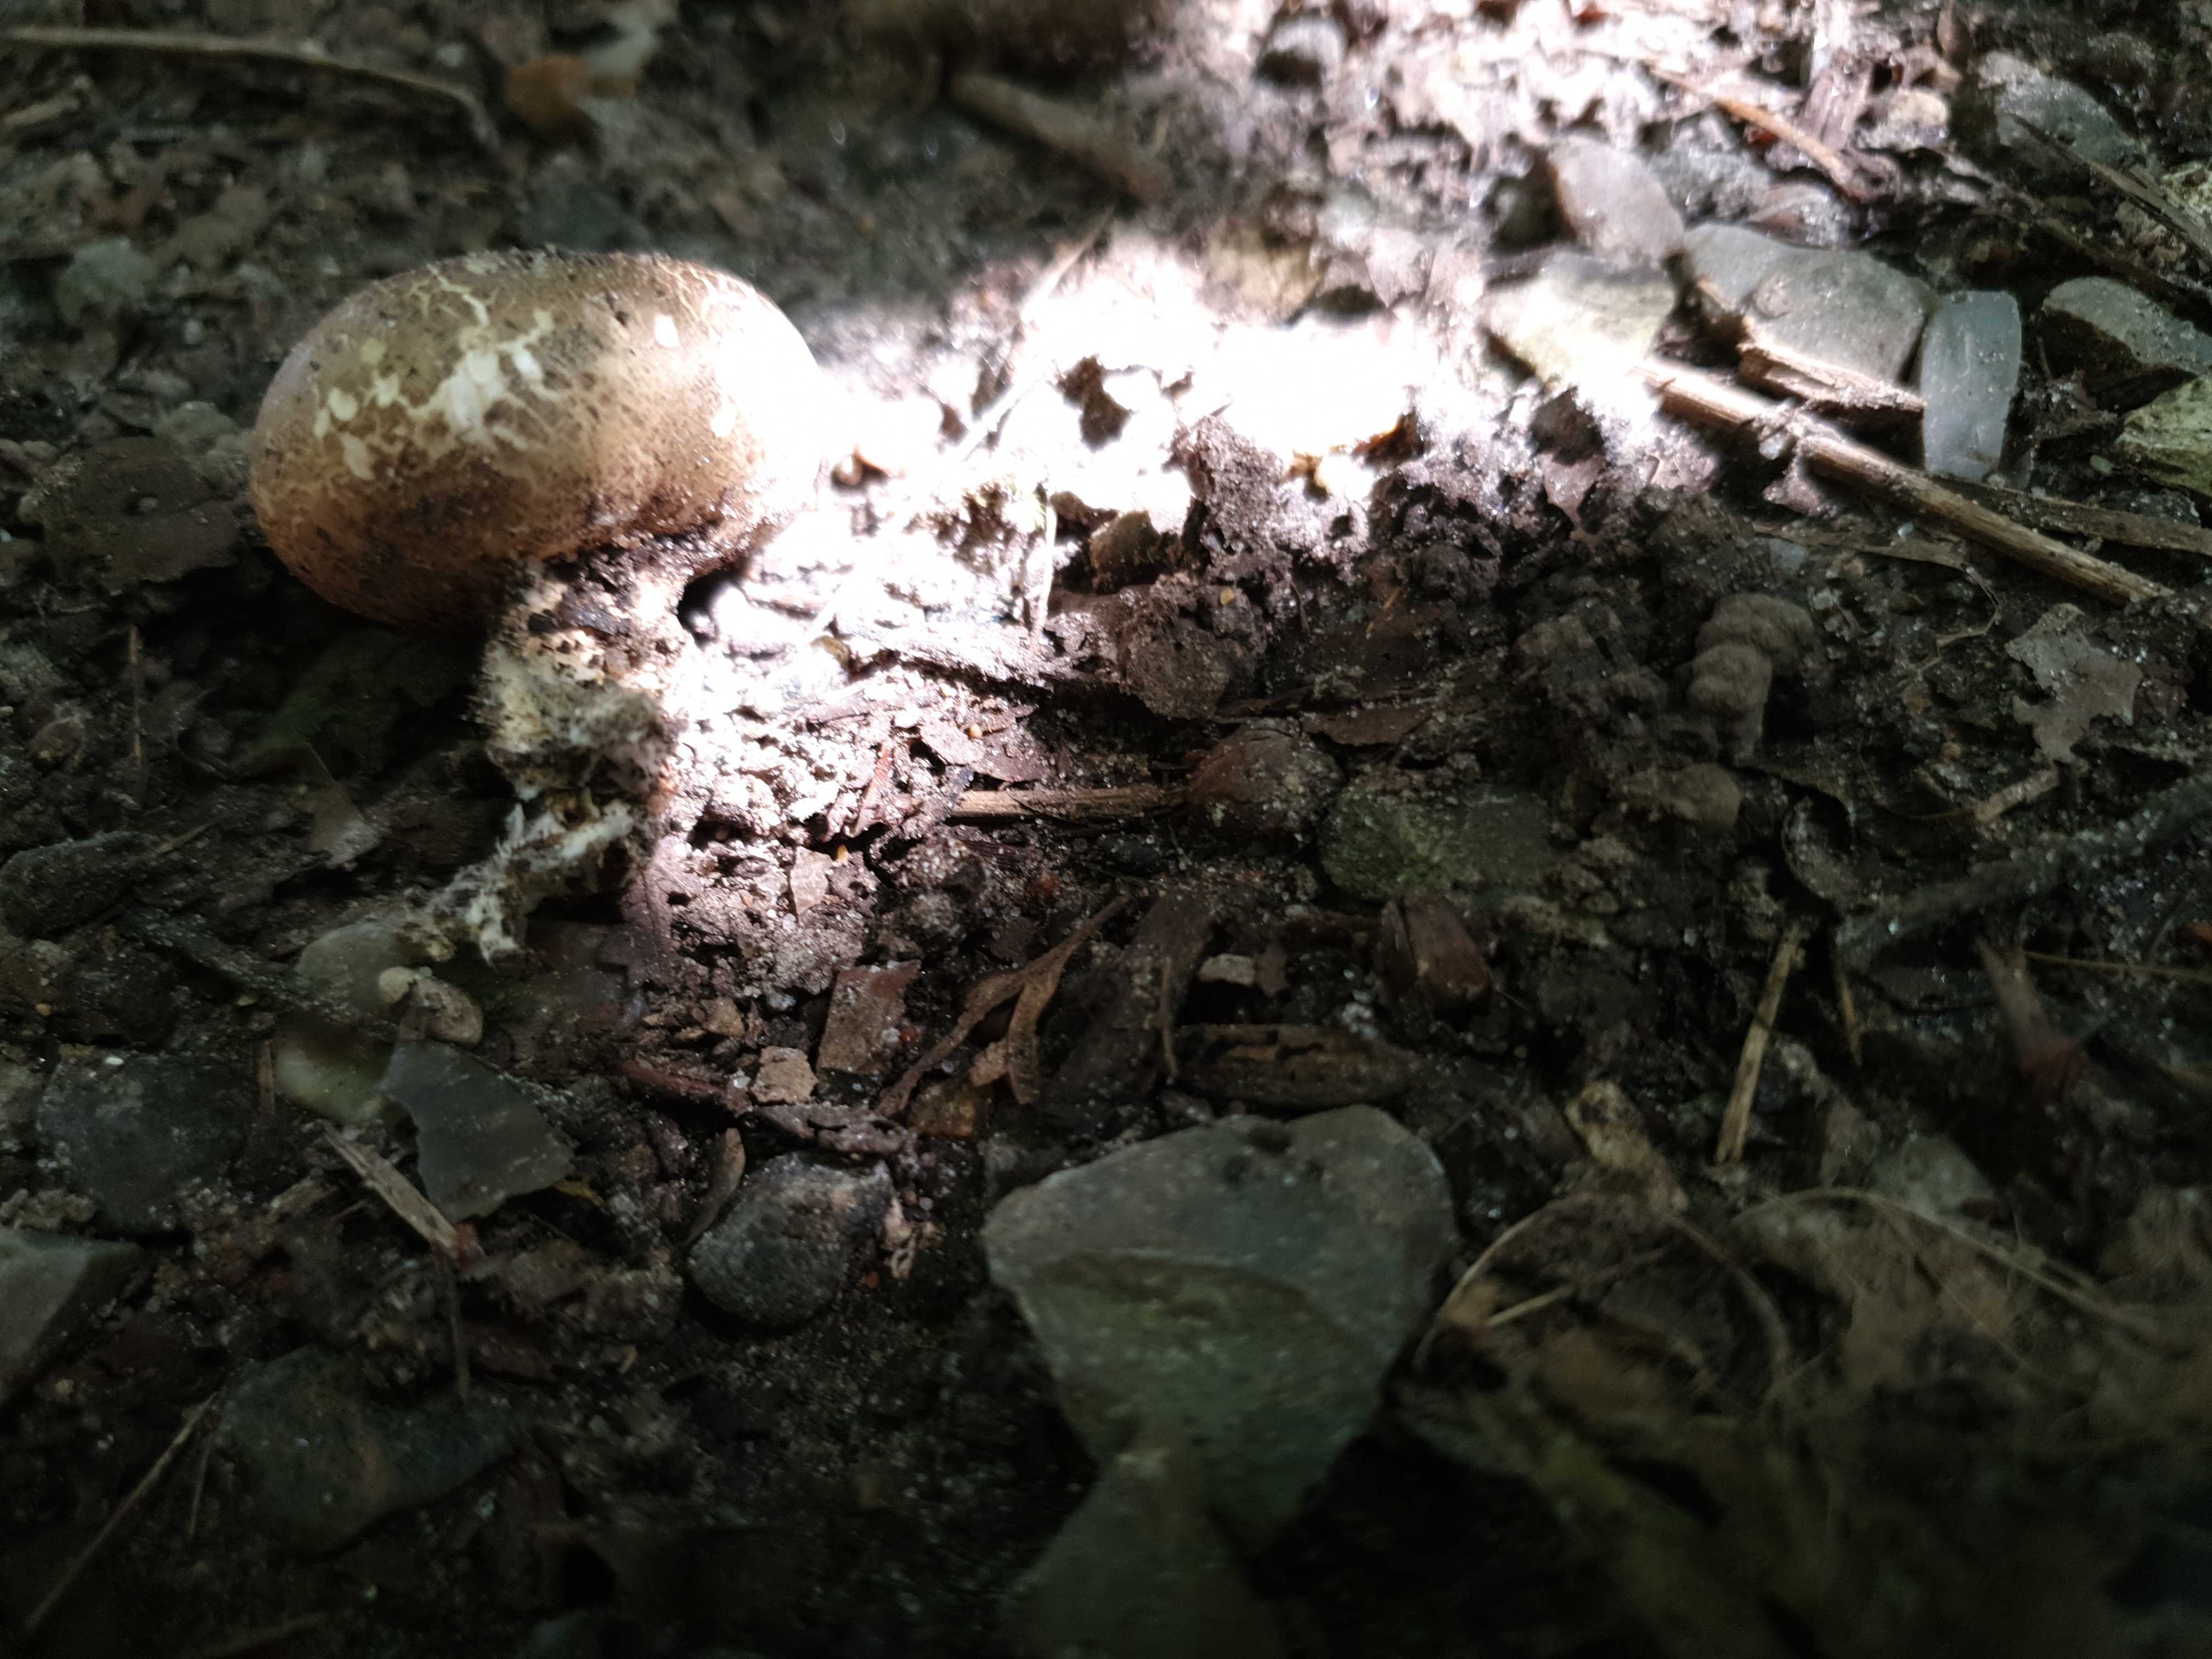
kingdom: Fungi
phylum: Basidiomycota
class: Agaricomycetes
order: Boletales
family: Sclerodermataceae
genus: Scleroderma
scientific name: Scleroderma
